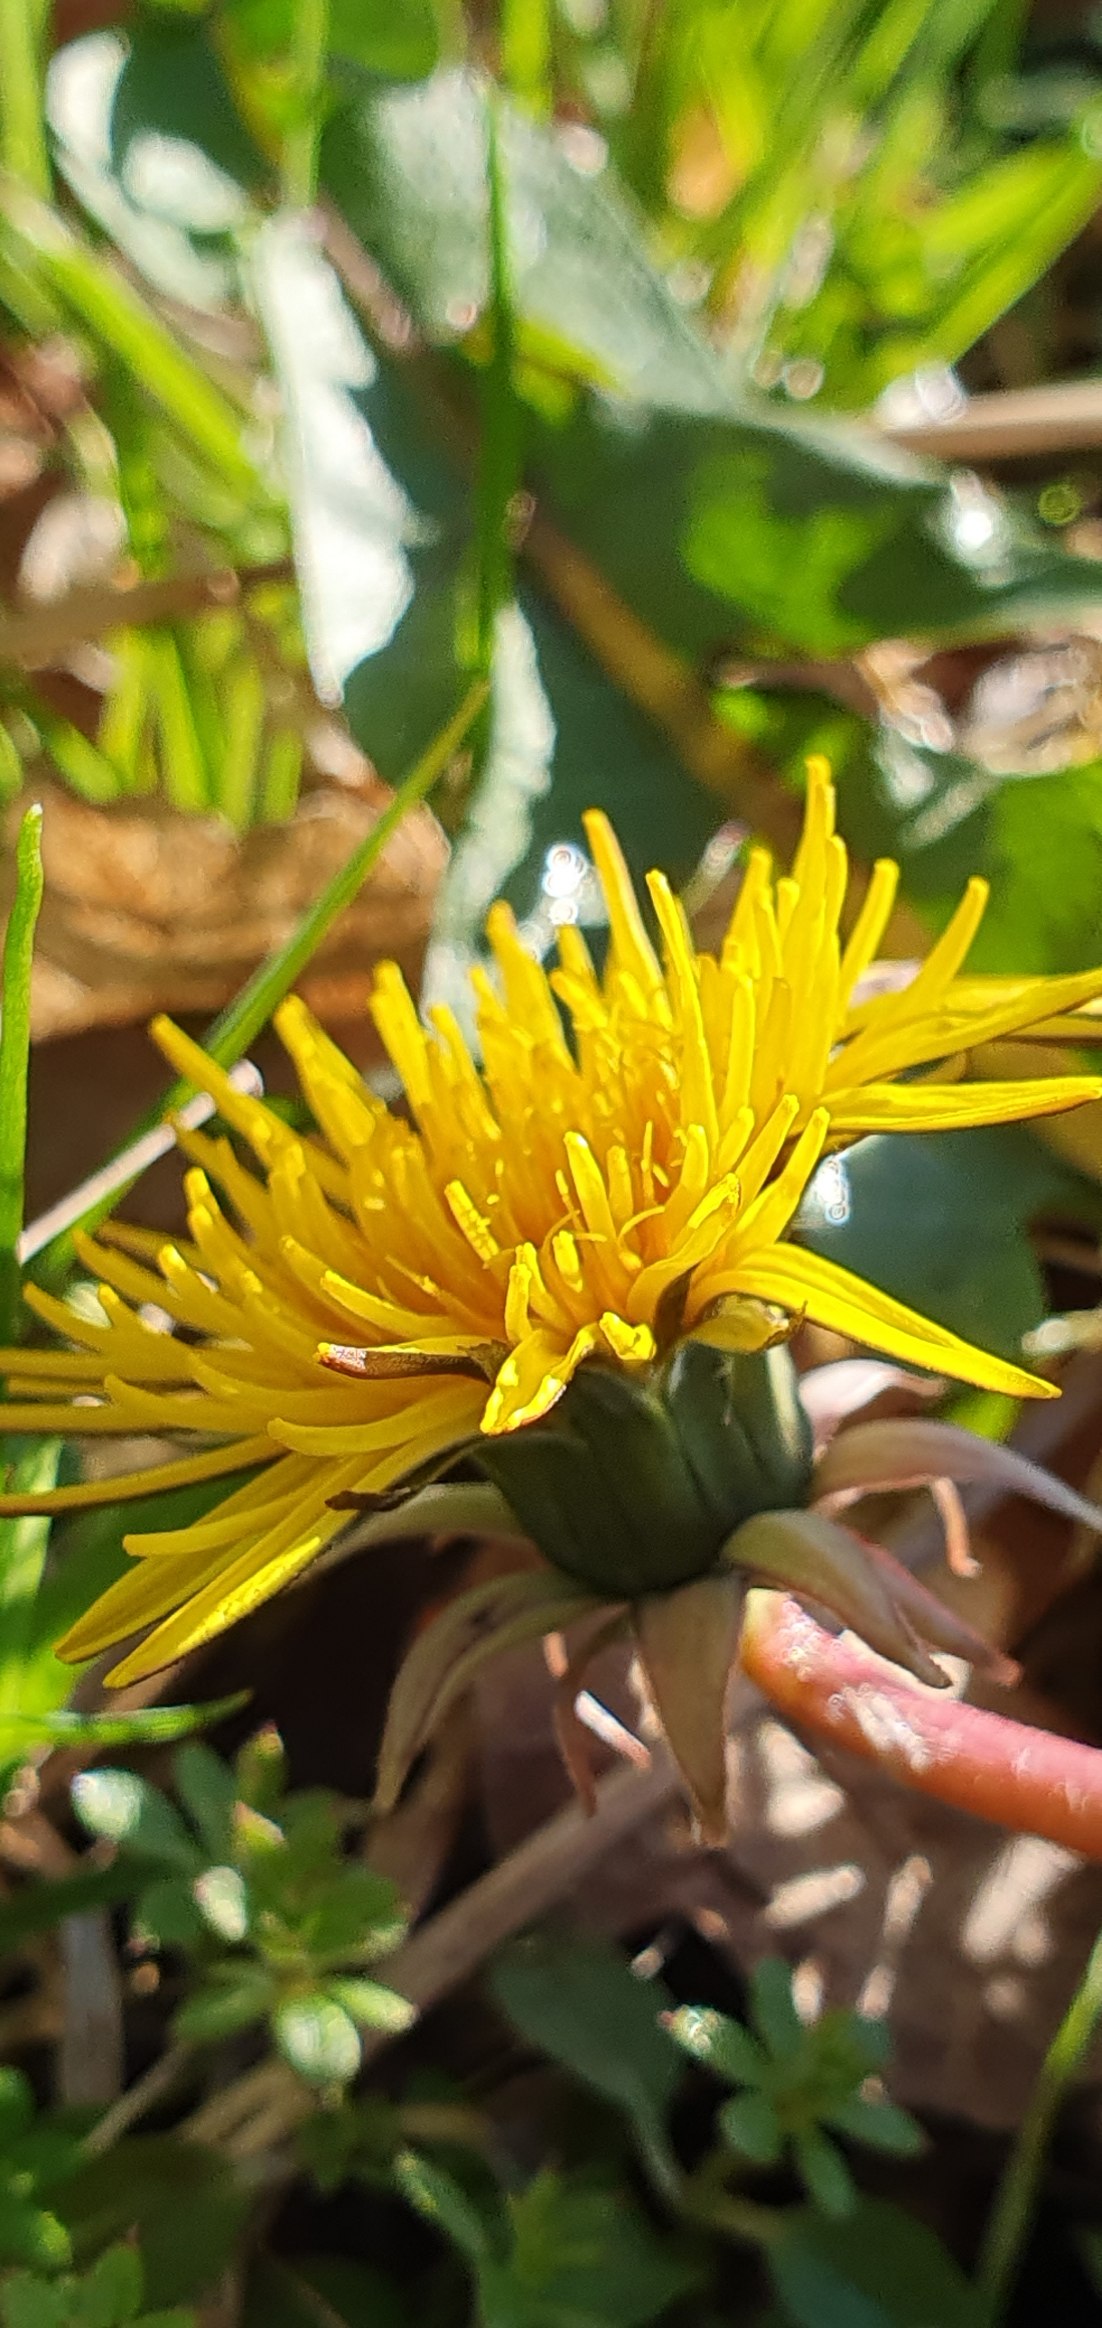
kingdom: Plantae
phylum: Tracheophyta
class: Magnoliopsida
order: Asterales
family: Asteraceae
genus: Taraxacum
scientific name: Taraxacum
